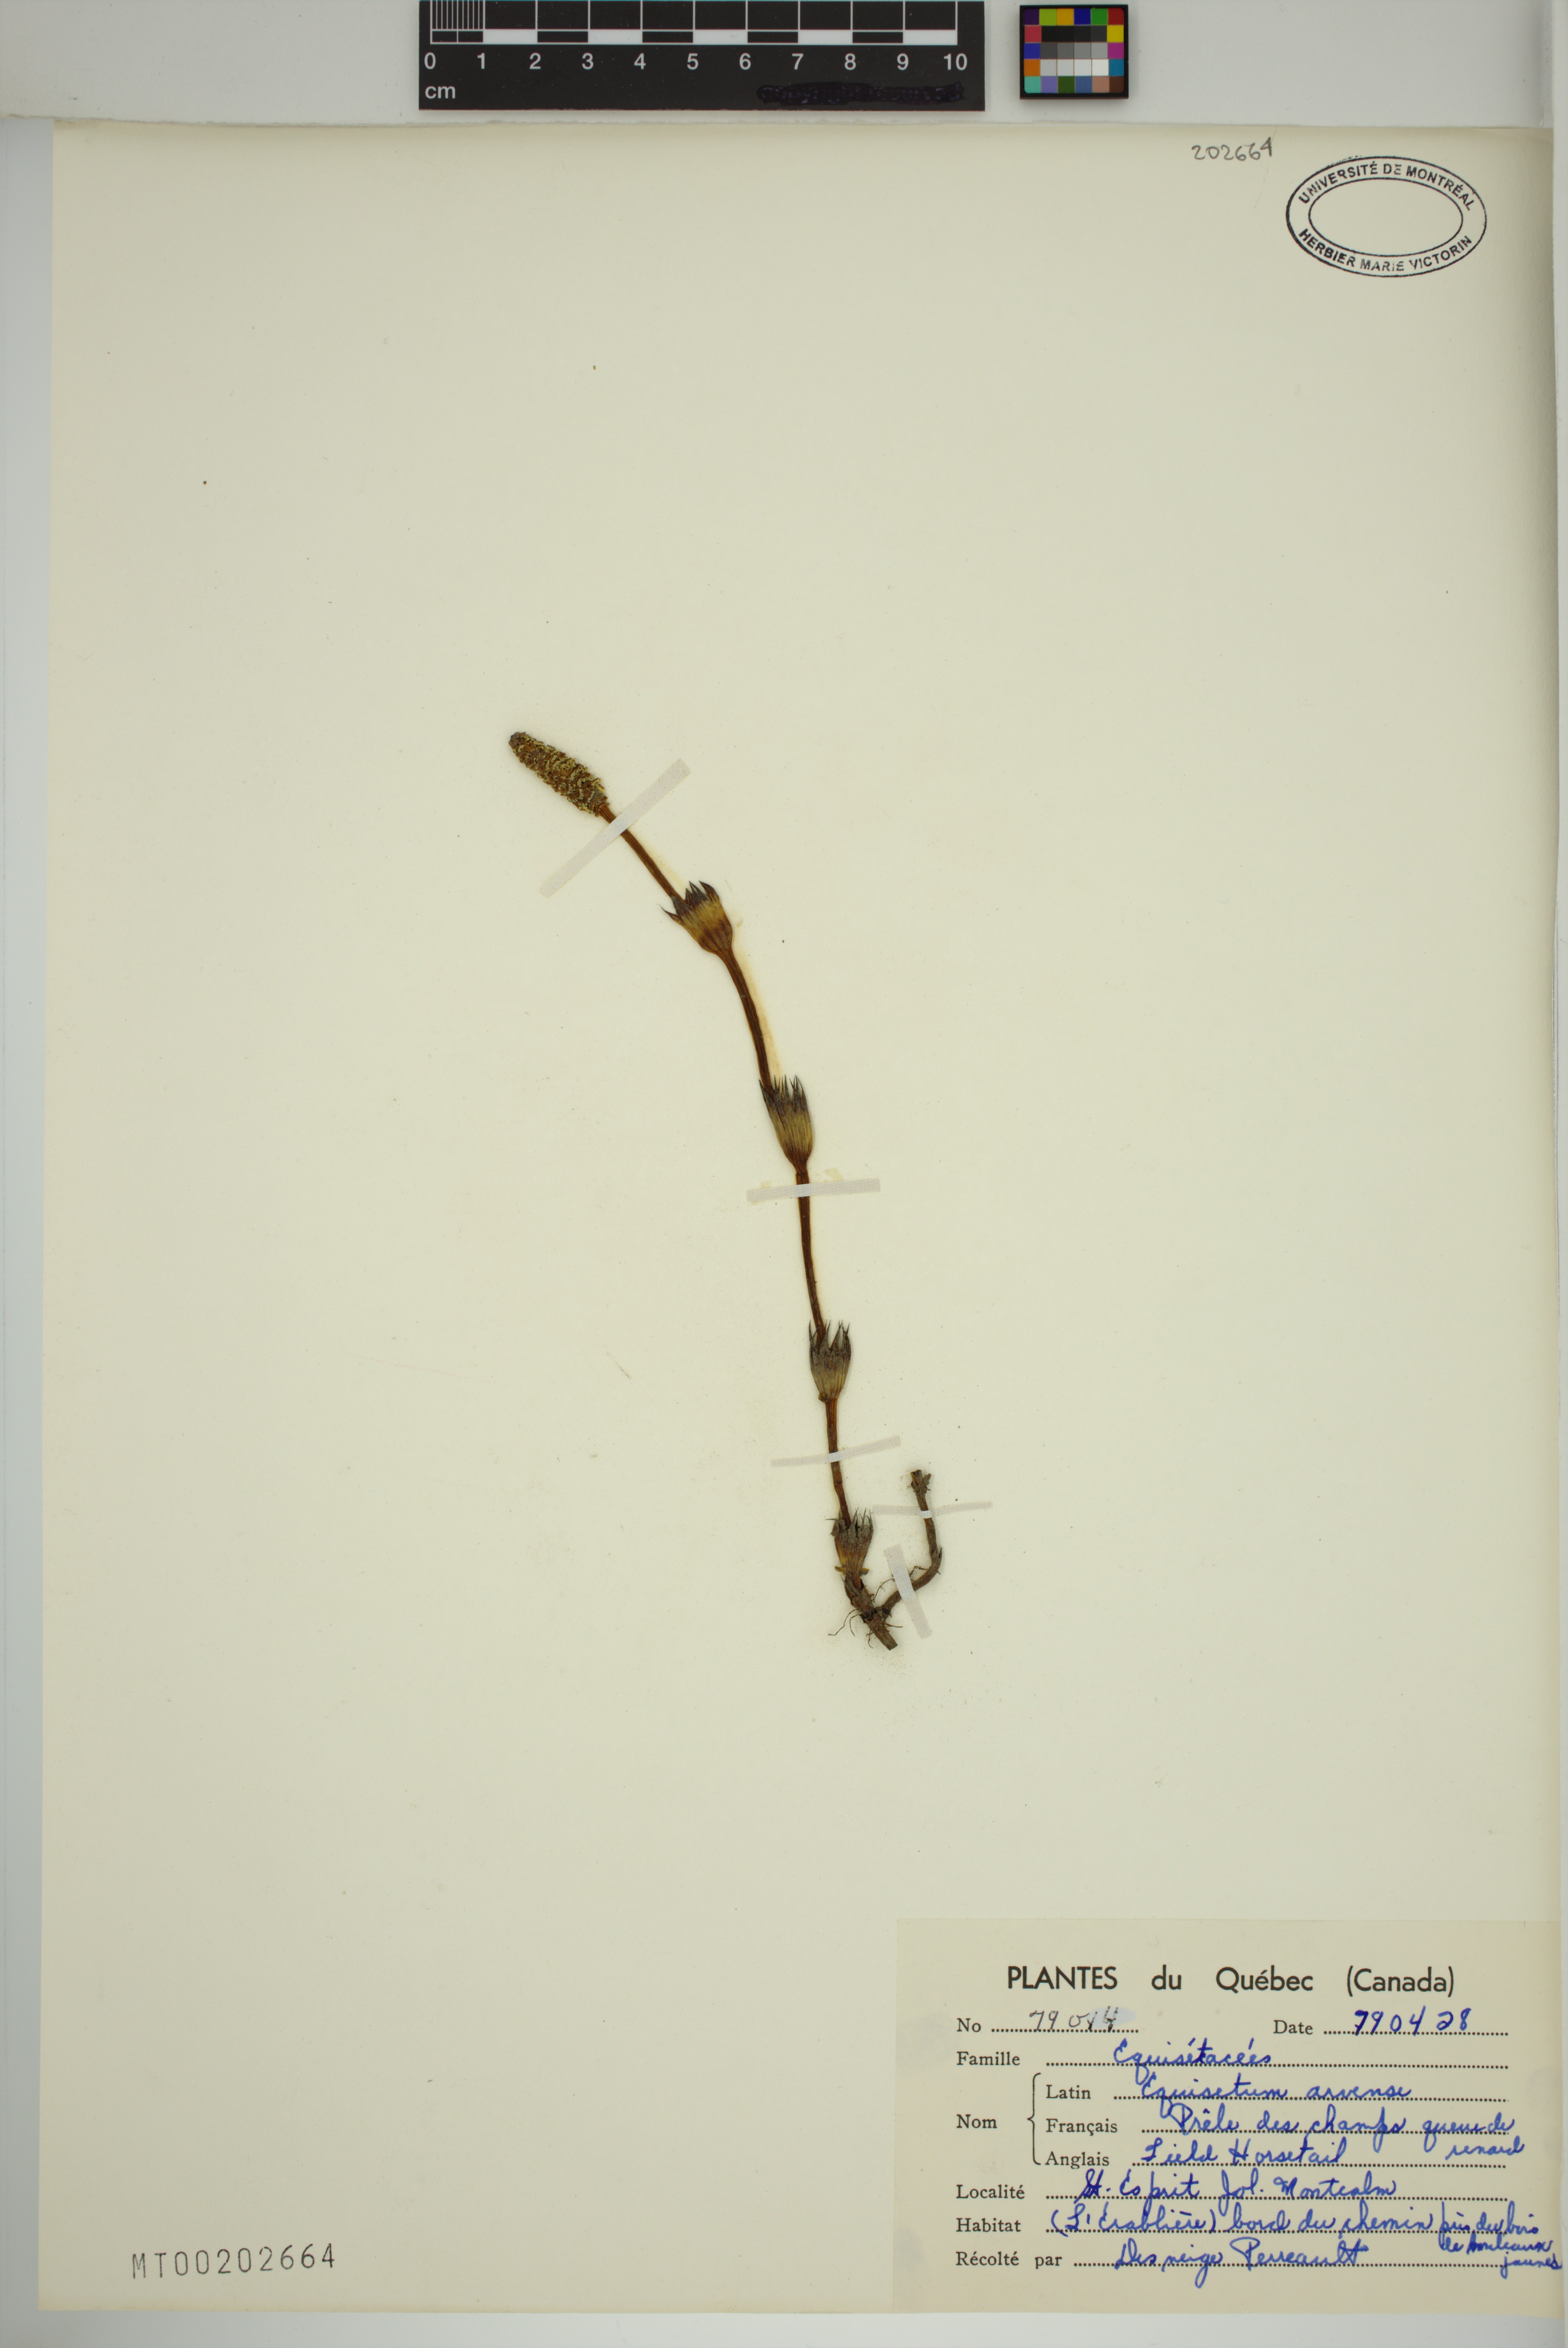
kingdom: Plantae
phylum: Tracheophyta
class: Polypodiopsida
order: Equisetales
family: Equisetaceae
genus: Equisetum
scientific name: Equisetum arvense
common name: Field horsetail
